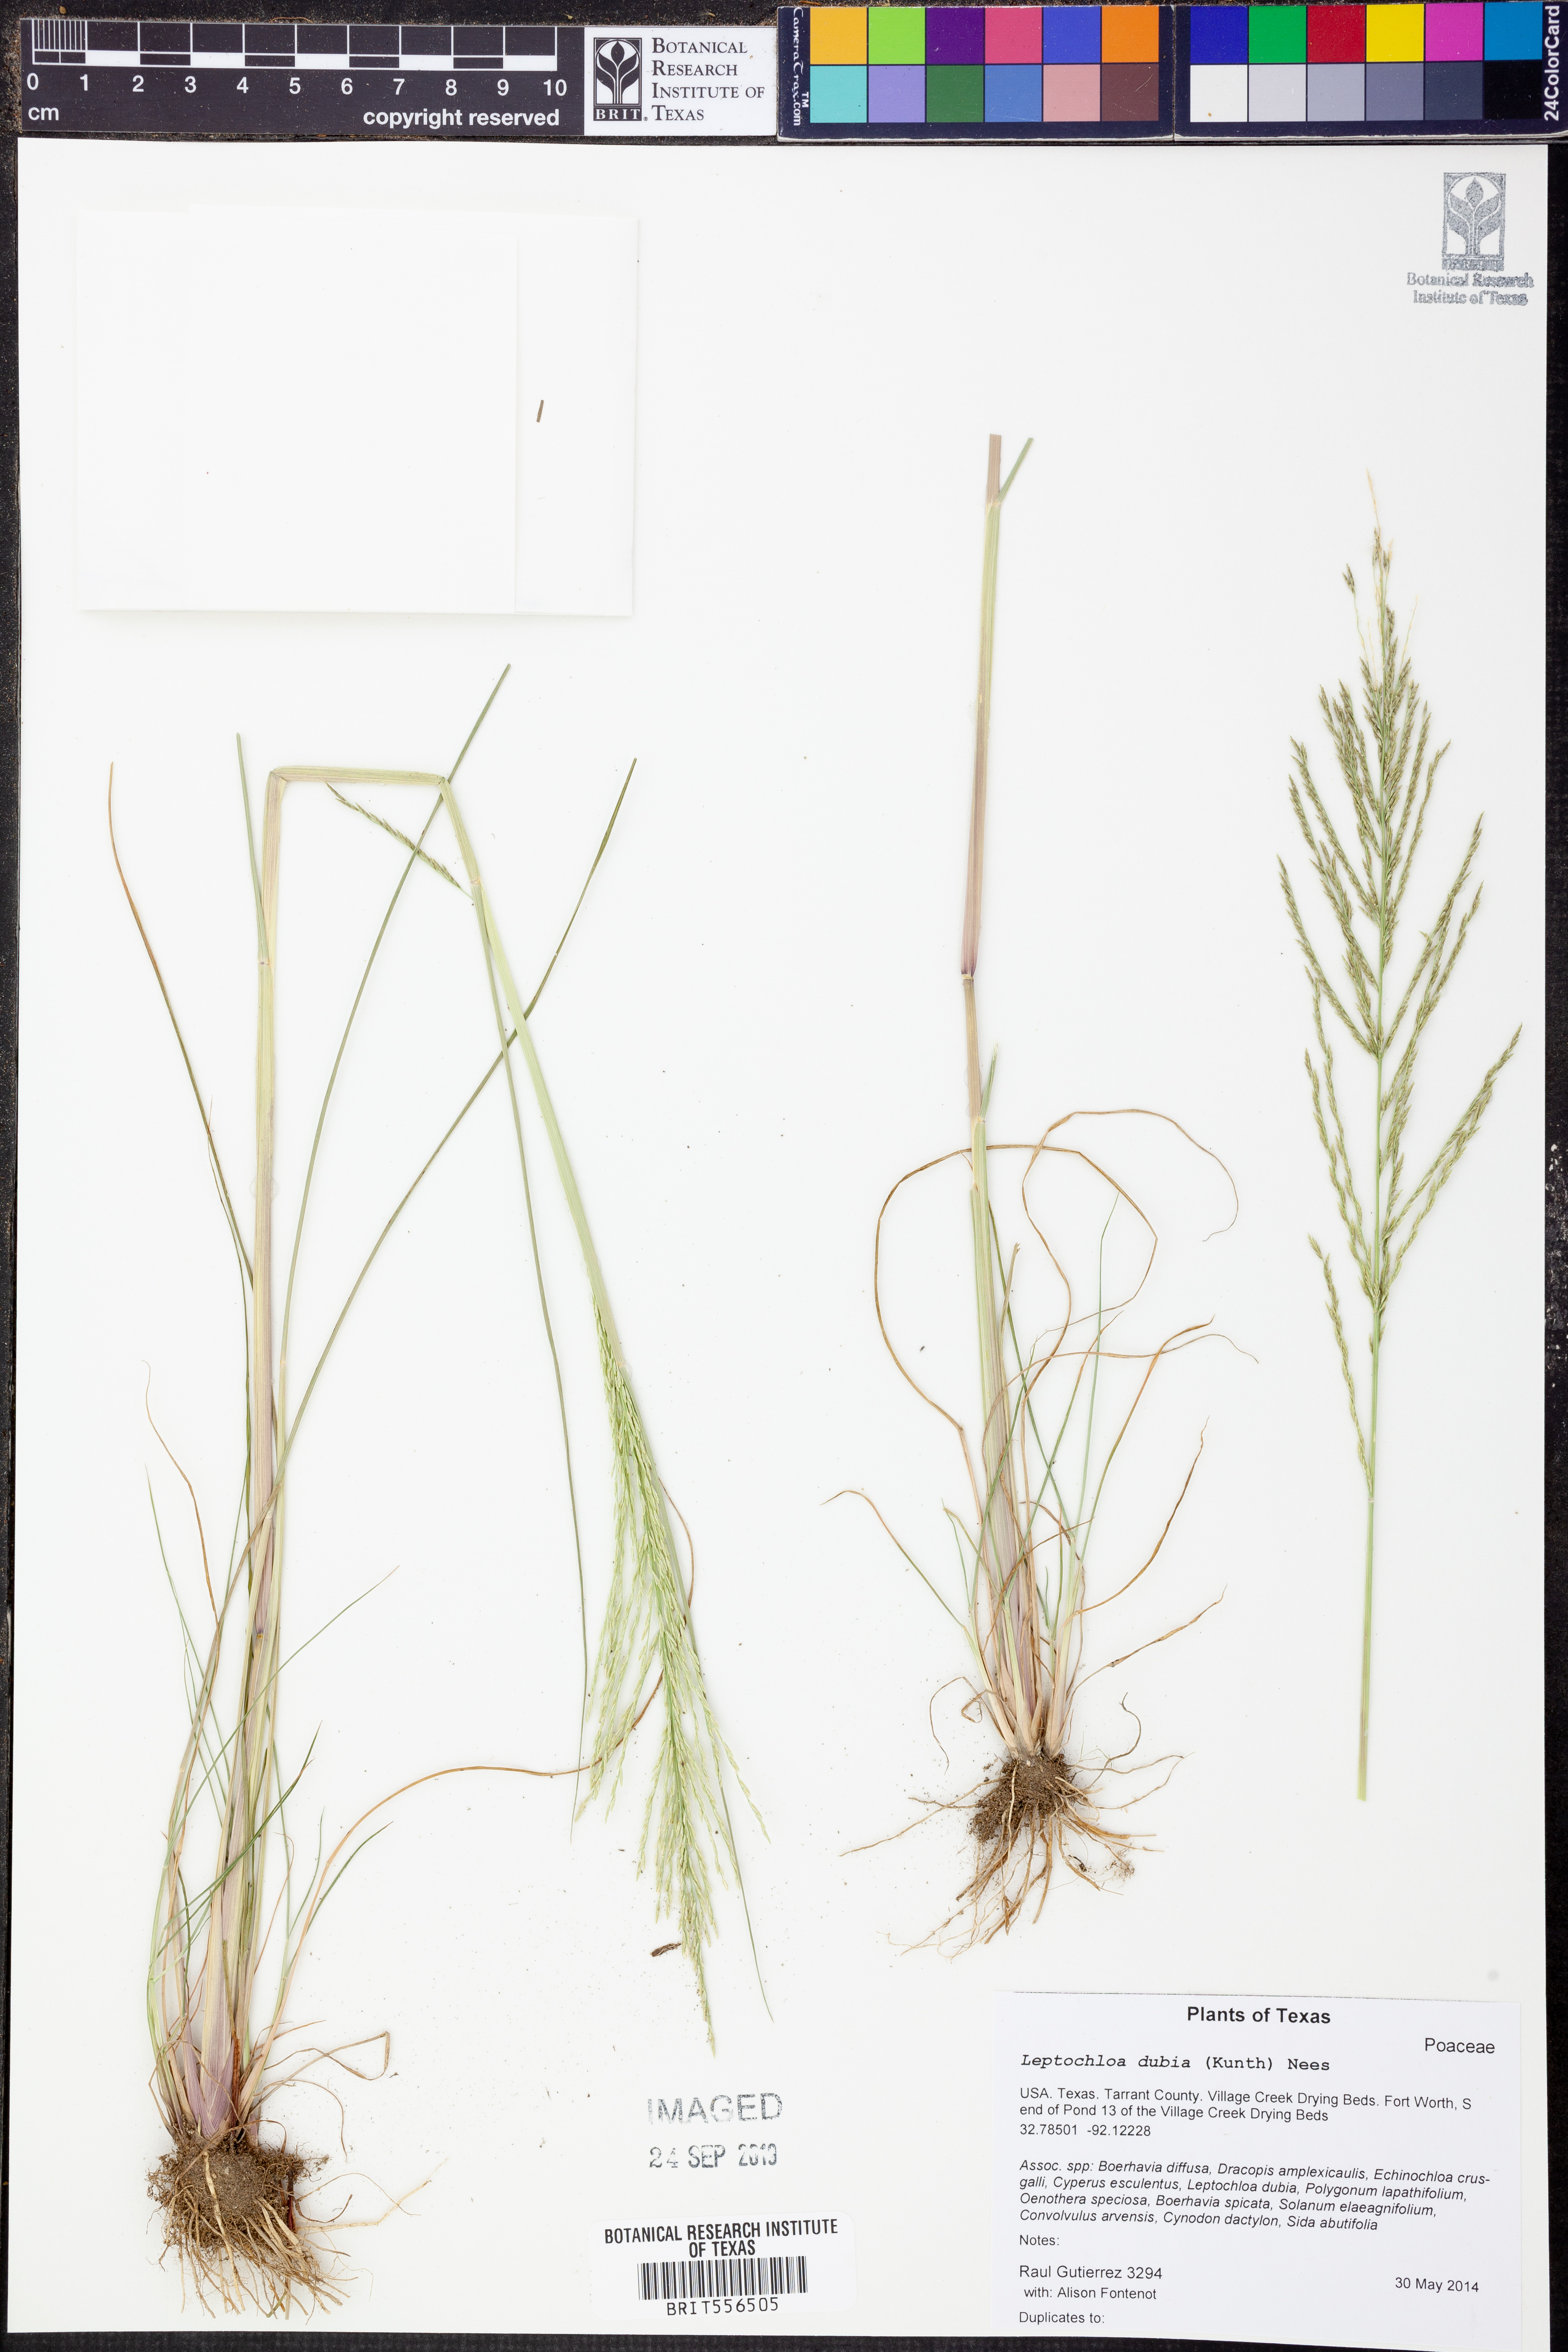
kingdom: Plantae
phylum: Tracheophyta
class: Liliopsida
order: Poales
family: Poaceae
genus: Disakisperma
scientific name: Disakisperma dubium
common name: Green sprangletop
